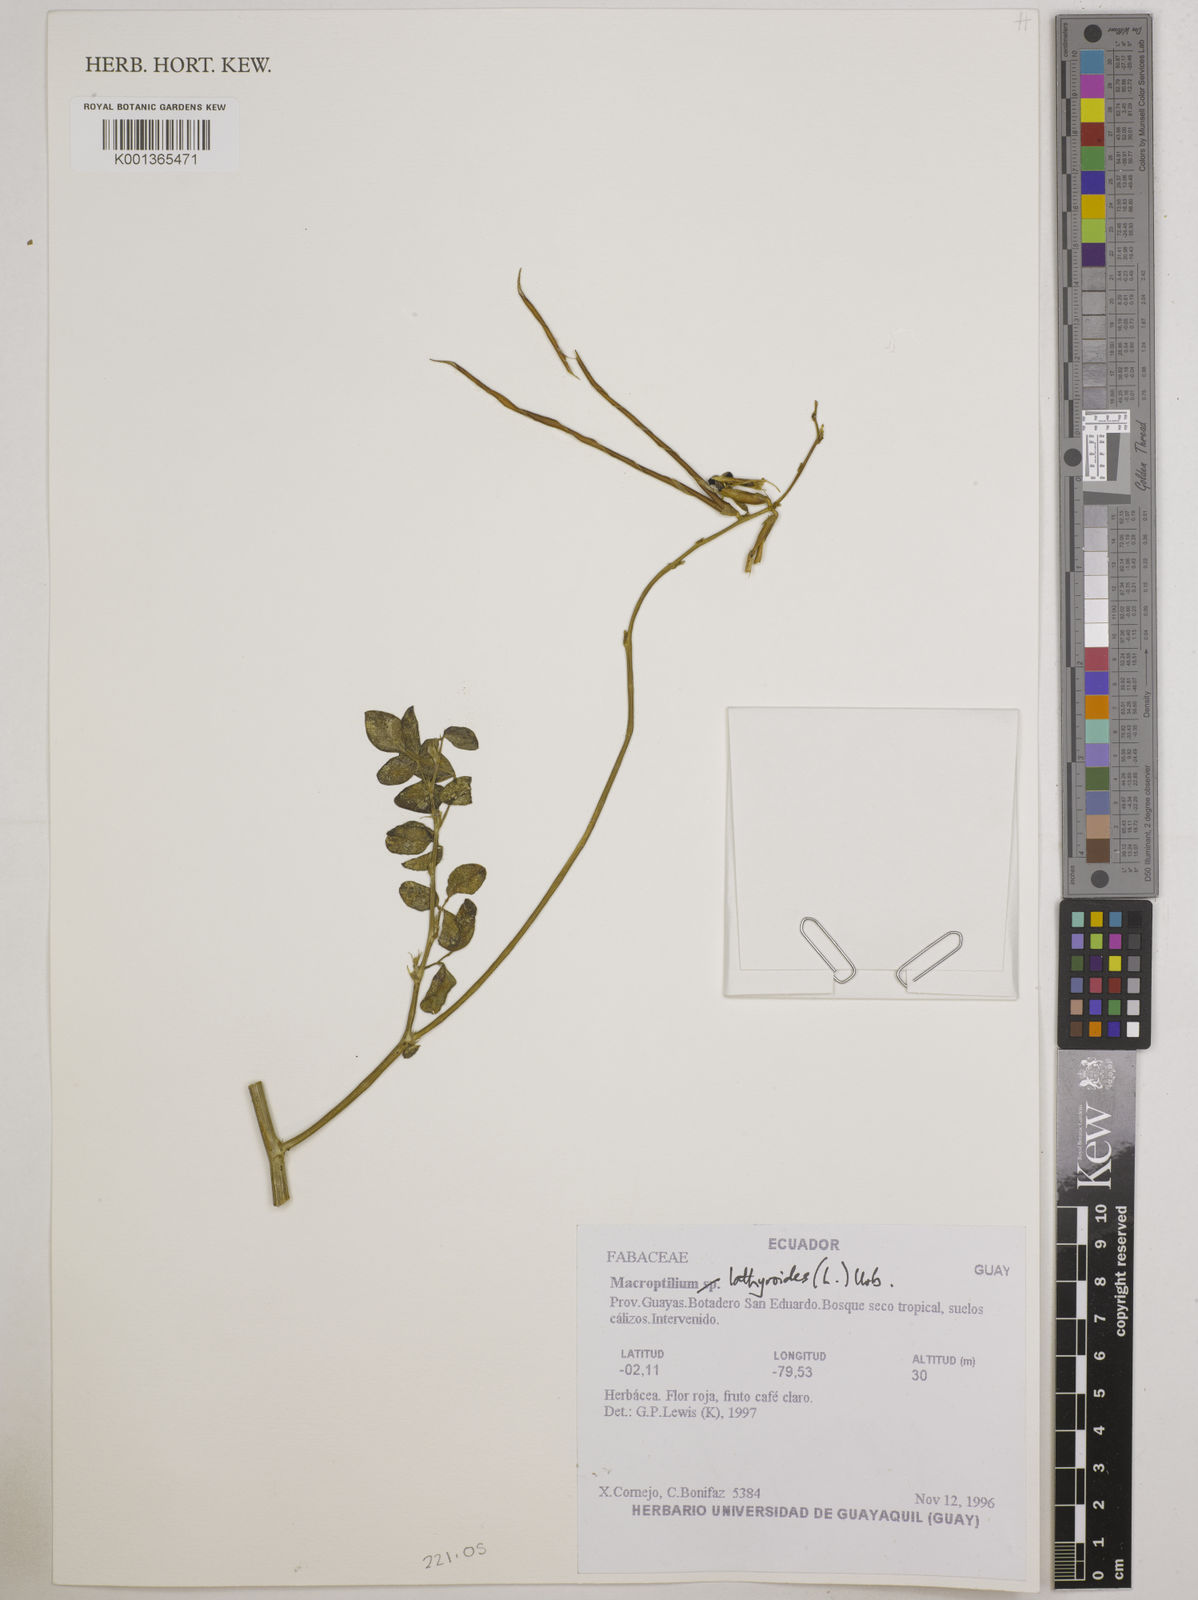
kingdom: Plantae
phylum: Tracheophyta
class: Magnoliopsida
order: Fabales
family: Fabaceae
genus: Macroptilium
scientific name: Macroptilium lathyroides
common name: Wild bushbean
